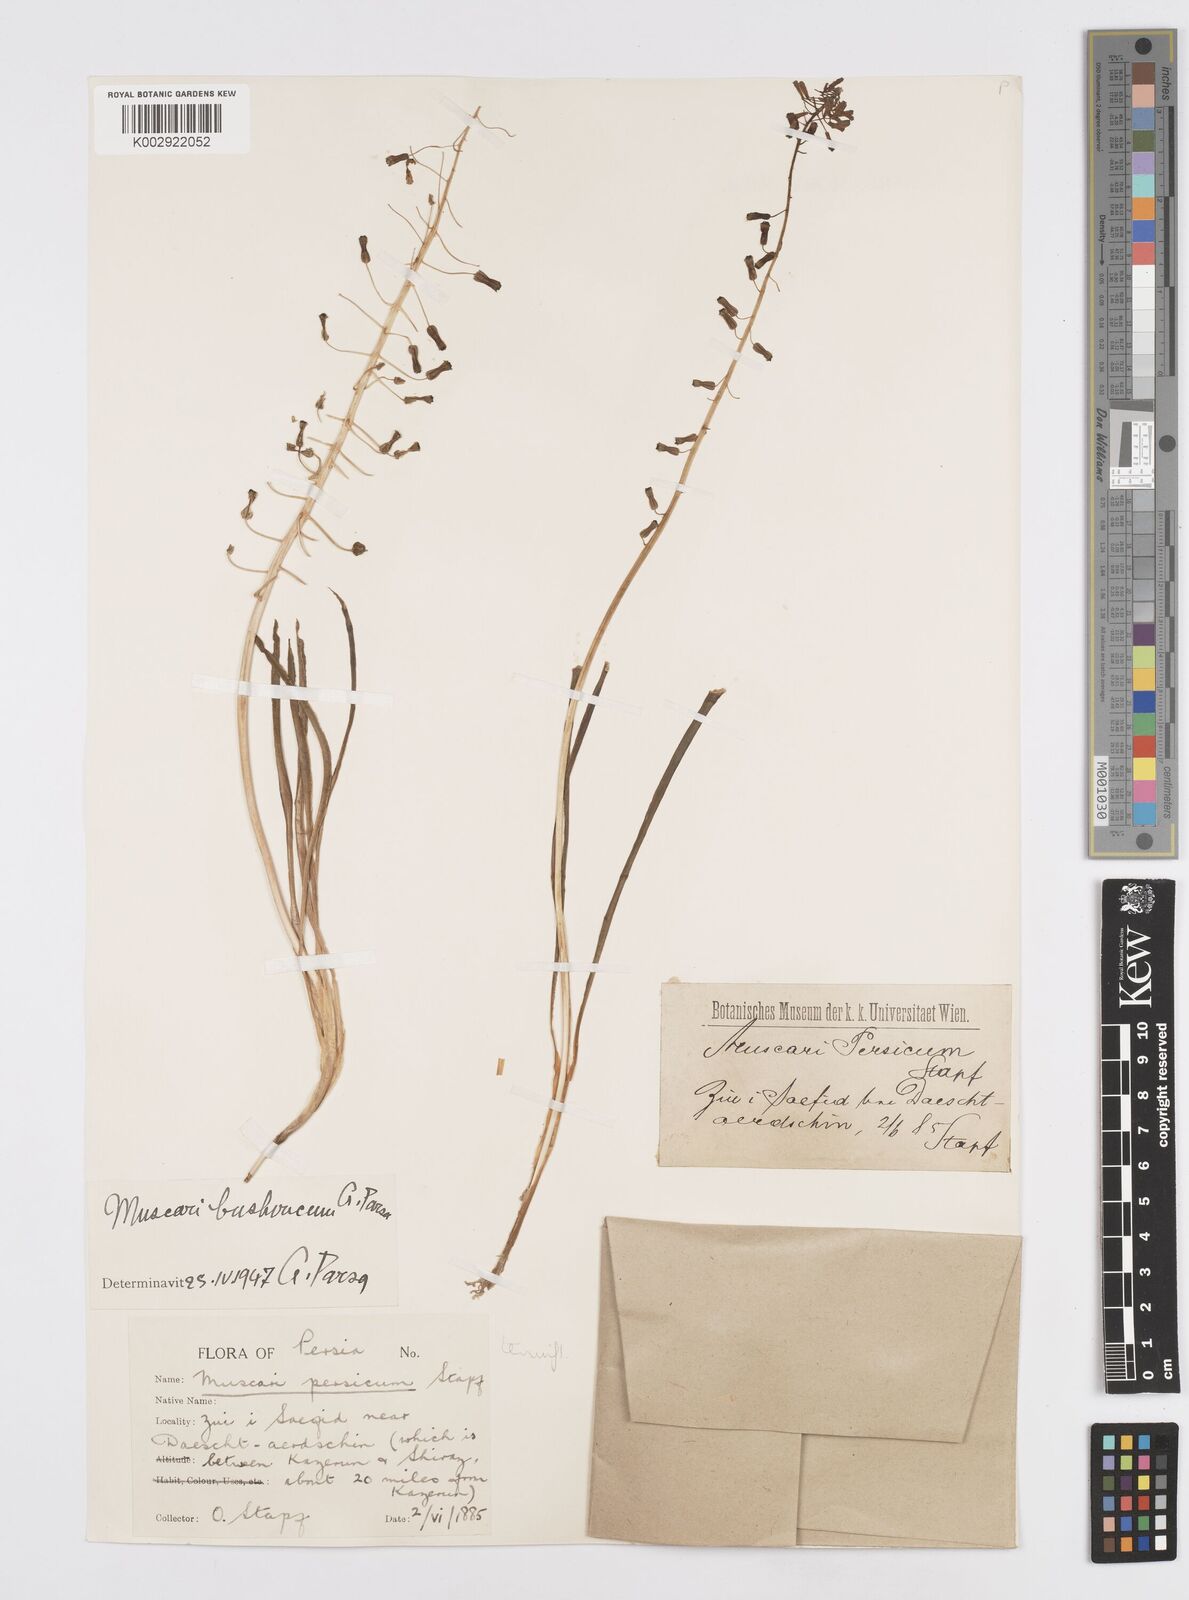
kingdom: Animalia
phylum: Mollusca
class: Cephalopoda
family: Neocomitidae
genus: Leopoldia
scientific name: Leopoldia
